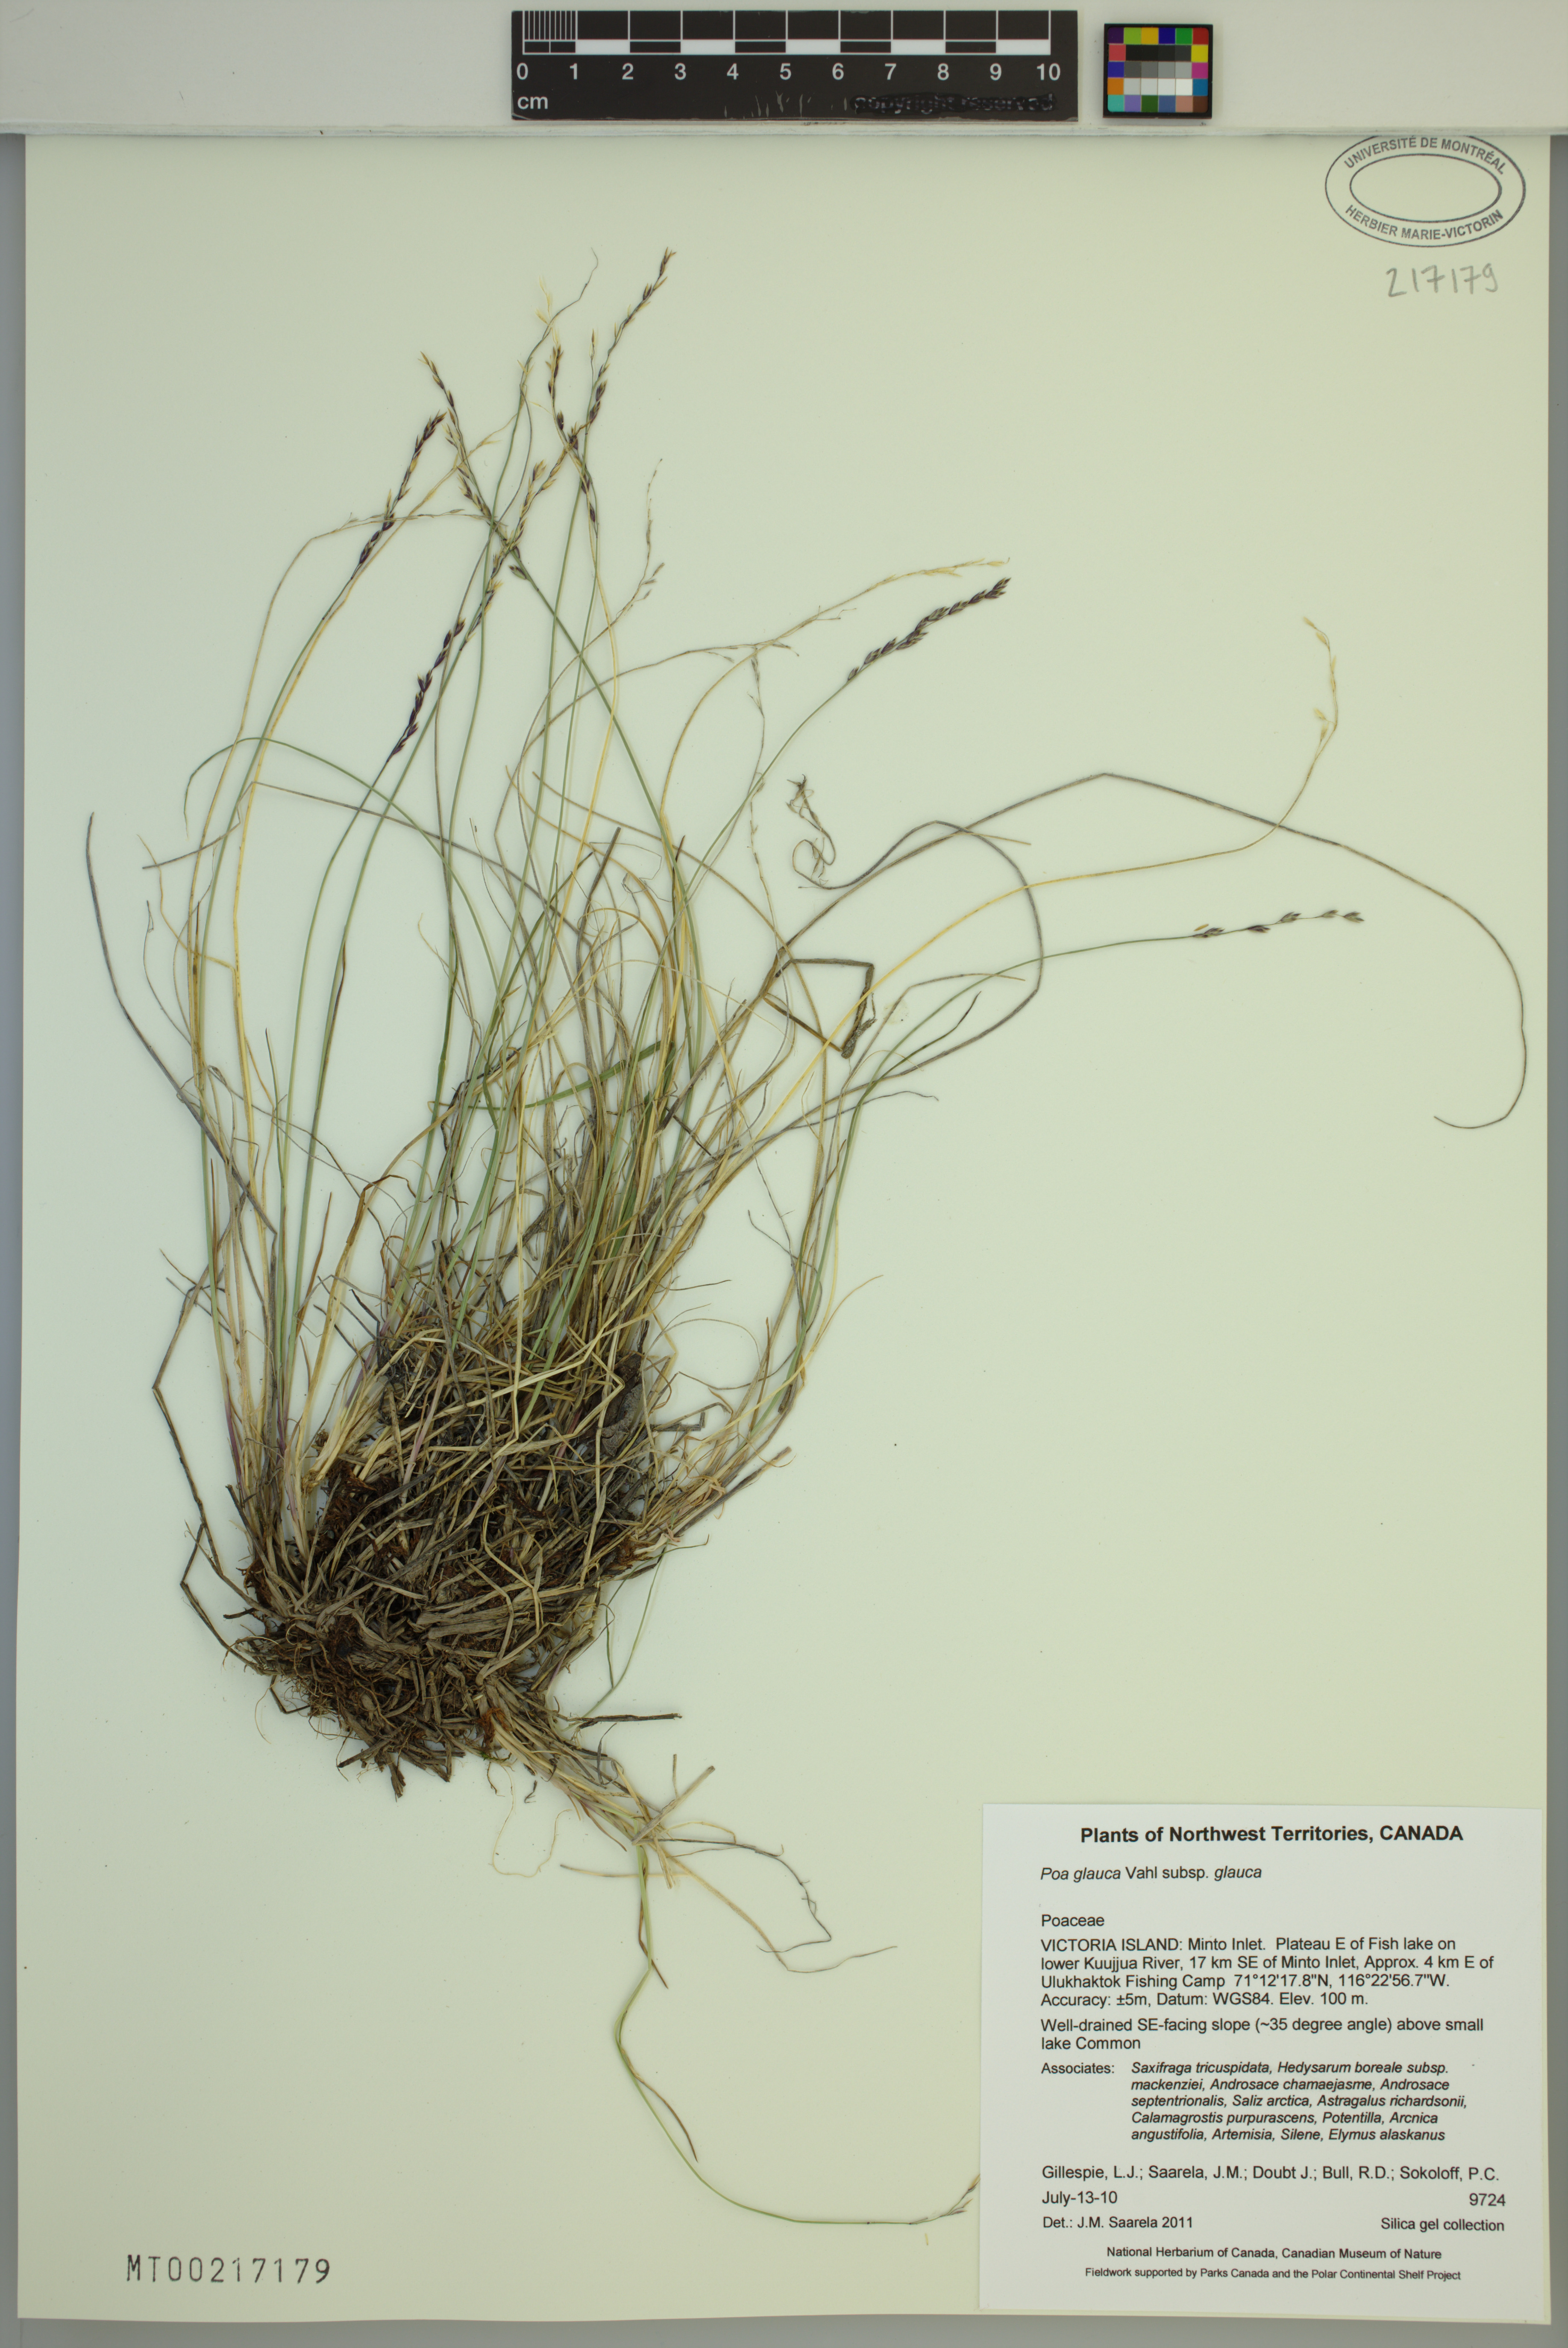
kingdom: Plantae
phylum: Tracheophyta
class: Liliopsida
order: Poales
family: Poaceae
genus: Poa
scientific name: Poa glauca
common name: Glaucous bluegrass
